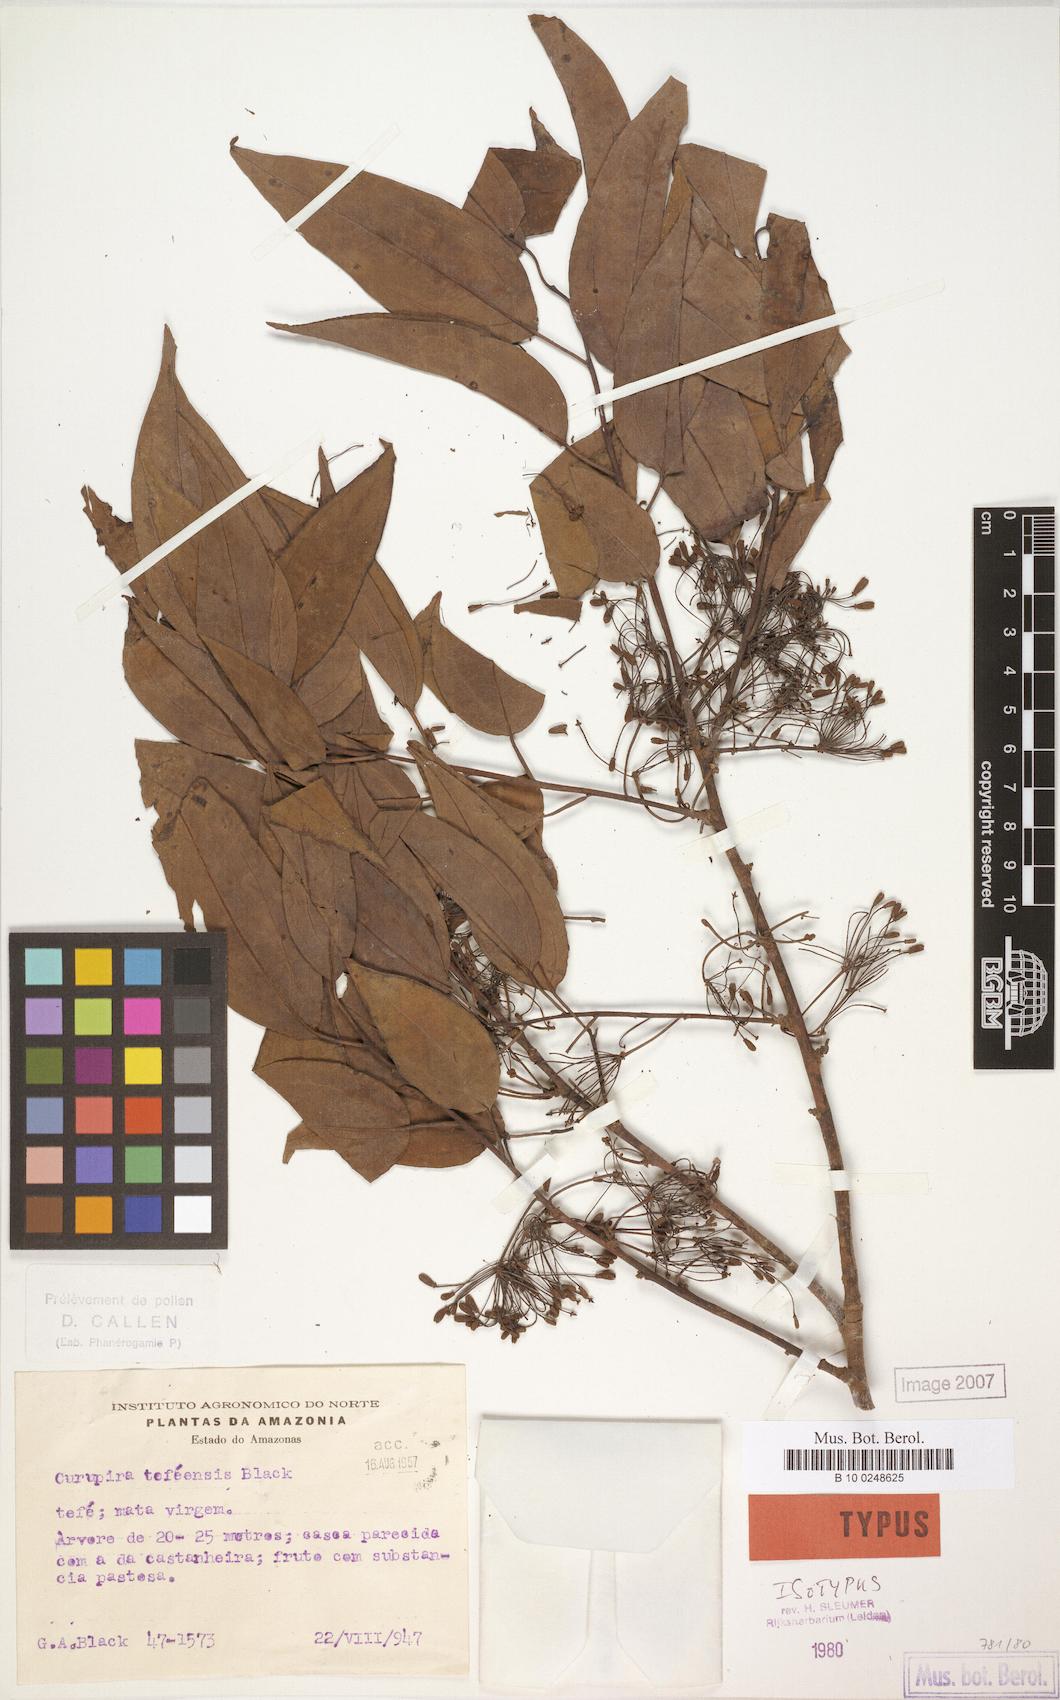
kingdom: Plantae
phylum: Tracheophyta
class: Magnoliopsida
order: Santalales
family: Ximeniaceae
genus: Curupira
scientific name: Curupira tefeensis
